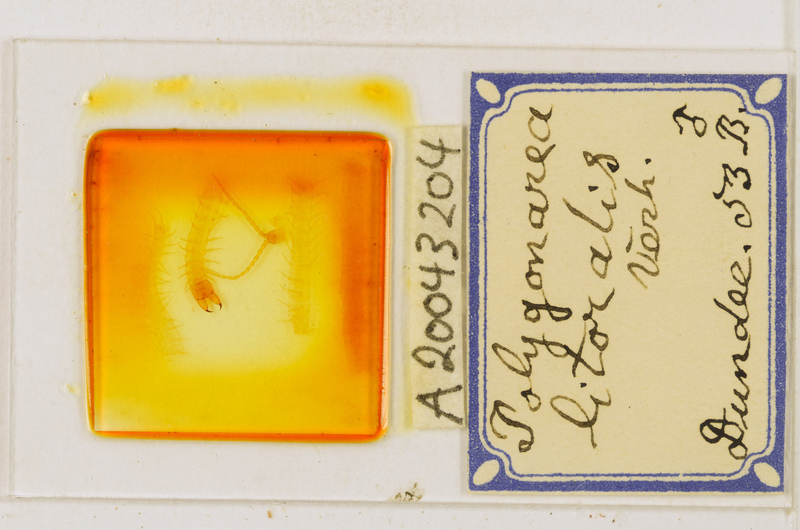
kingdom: Animalia
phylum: Arthropoda
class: Chilopoda
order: Geophilomorpha
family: Geophilidae
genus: Polygonarea
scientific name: Polygonarea litoralis
